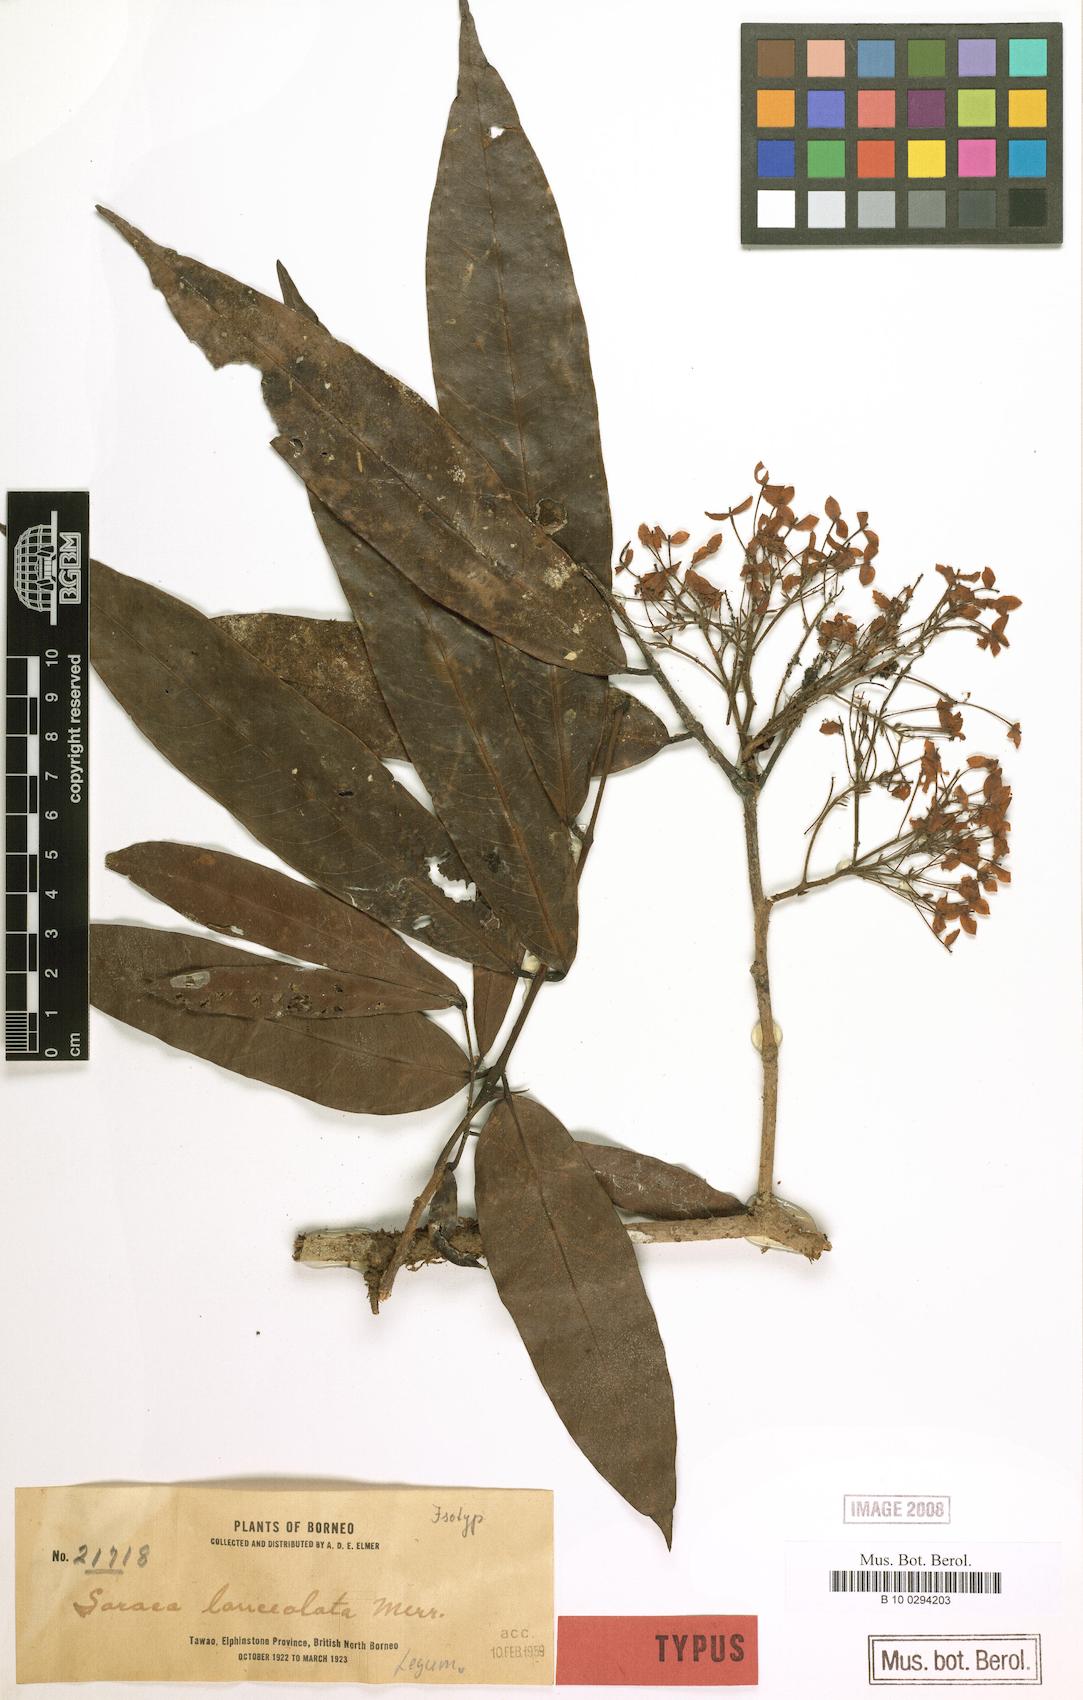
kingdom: Plantae
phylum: Tracheophyta
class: Magnoliopsida
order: Fabales
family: Fabaceae
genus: Saraca
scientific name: Saraca declinata
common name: Red saraca
